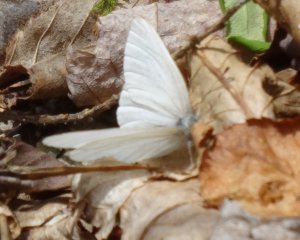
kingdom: Animalia
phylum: Arthropoda
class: Insecta
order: Lepidoptera
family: Pieridae
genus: Pieris
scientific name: Pieris virginiensis
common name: West Virginia White
